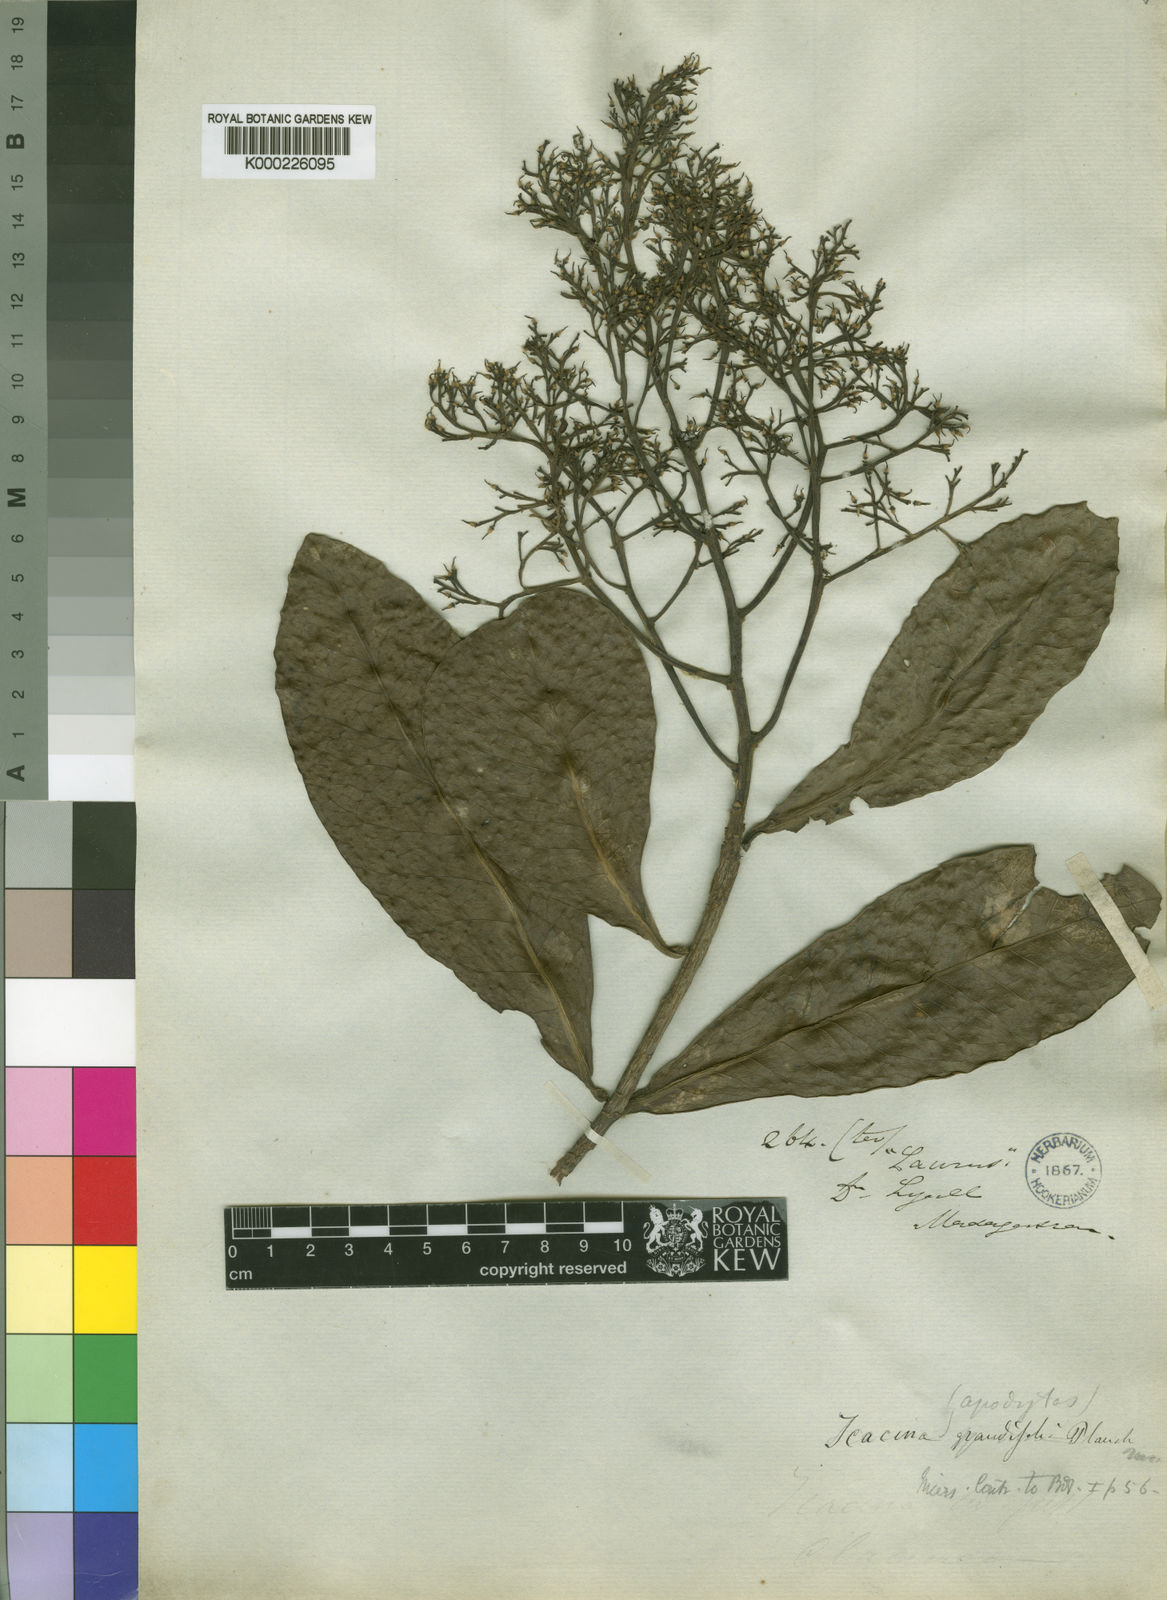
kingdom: Plantae
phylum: Tracheophyta
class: Magnoliopsida
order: Metteniusales
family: Metteniusaceae
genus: Apodytes
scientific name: Apodytes grandifolia
